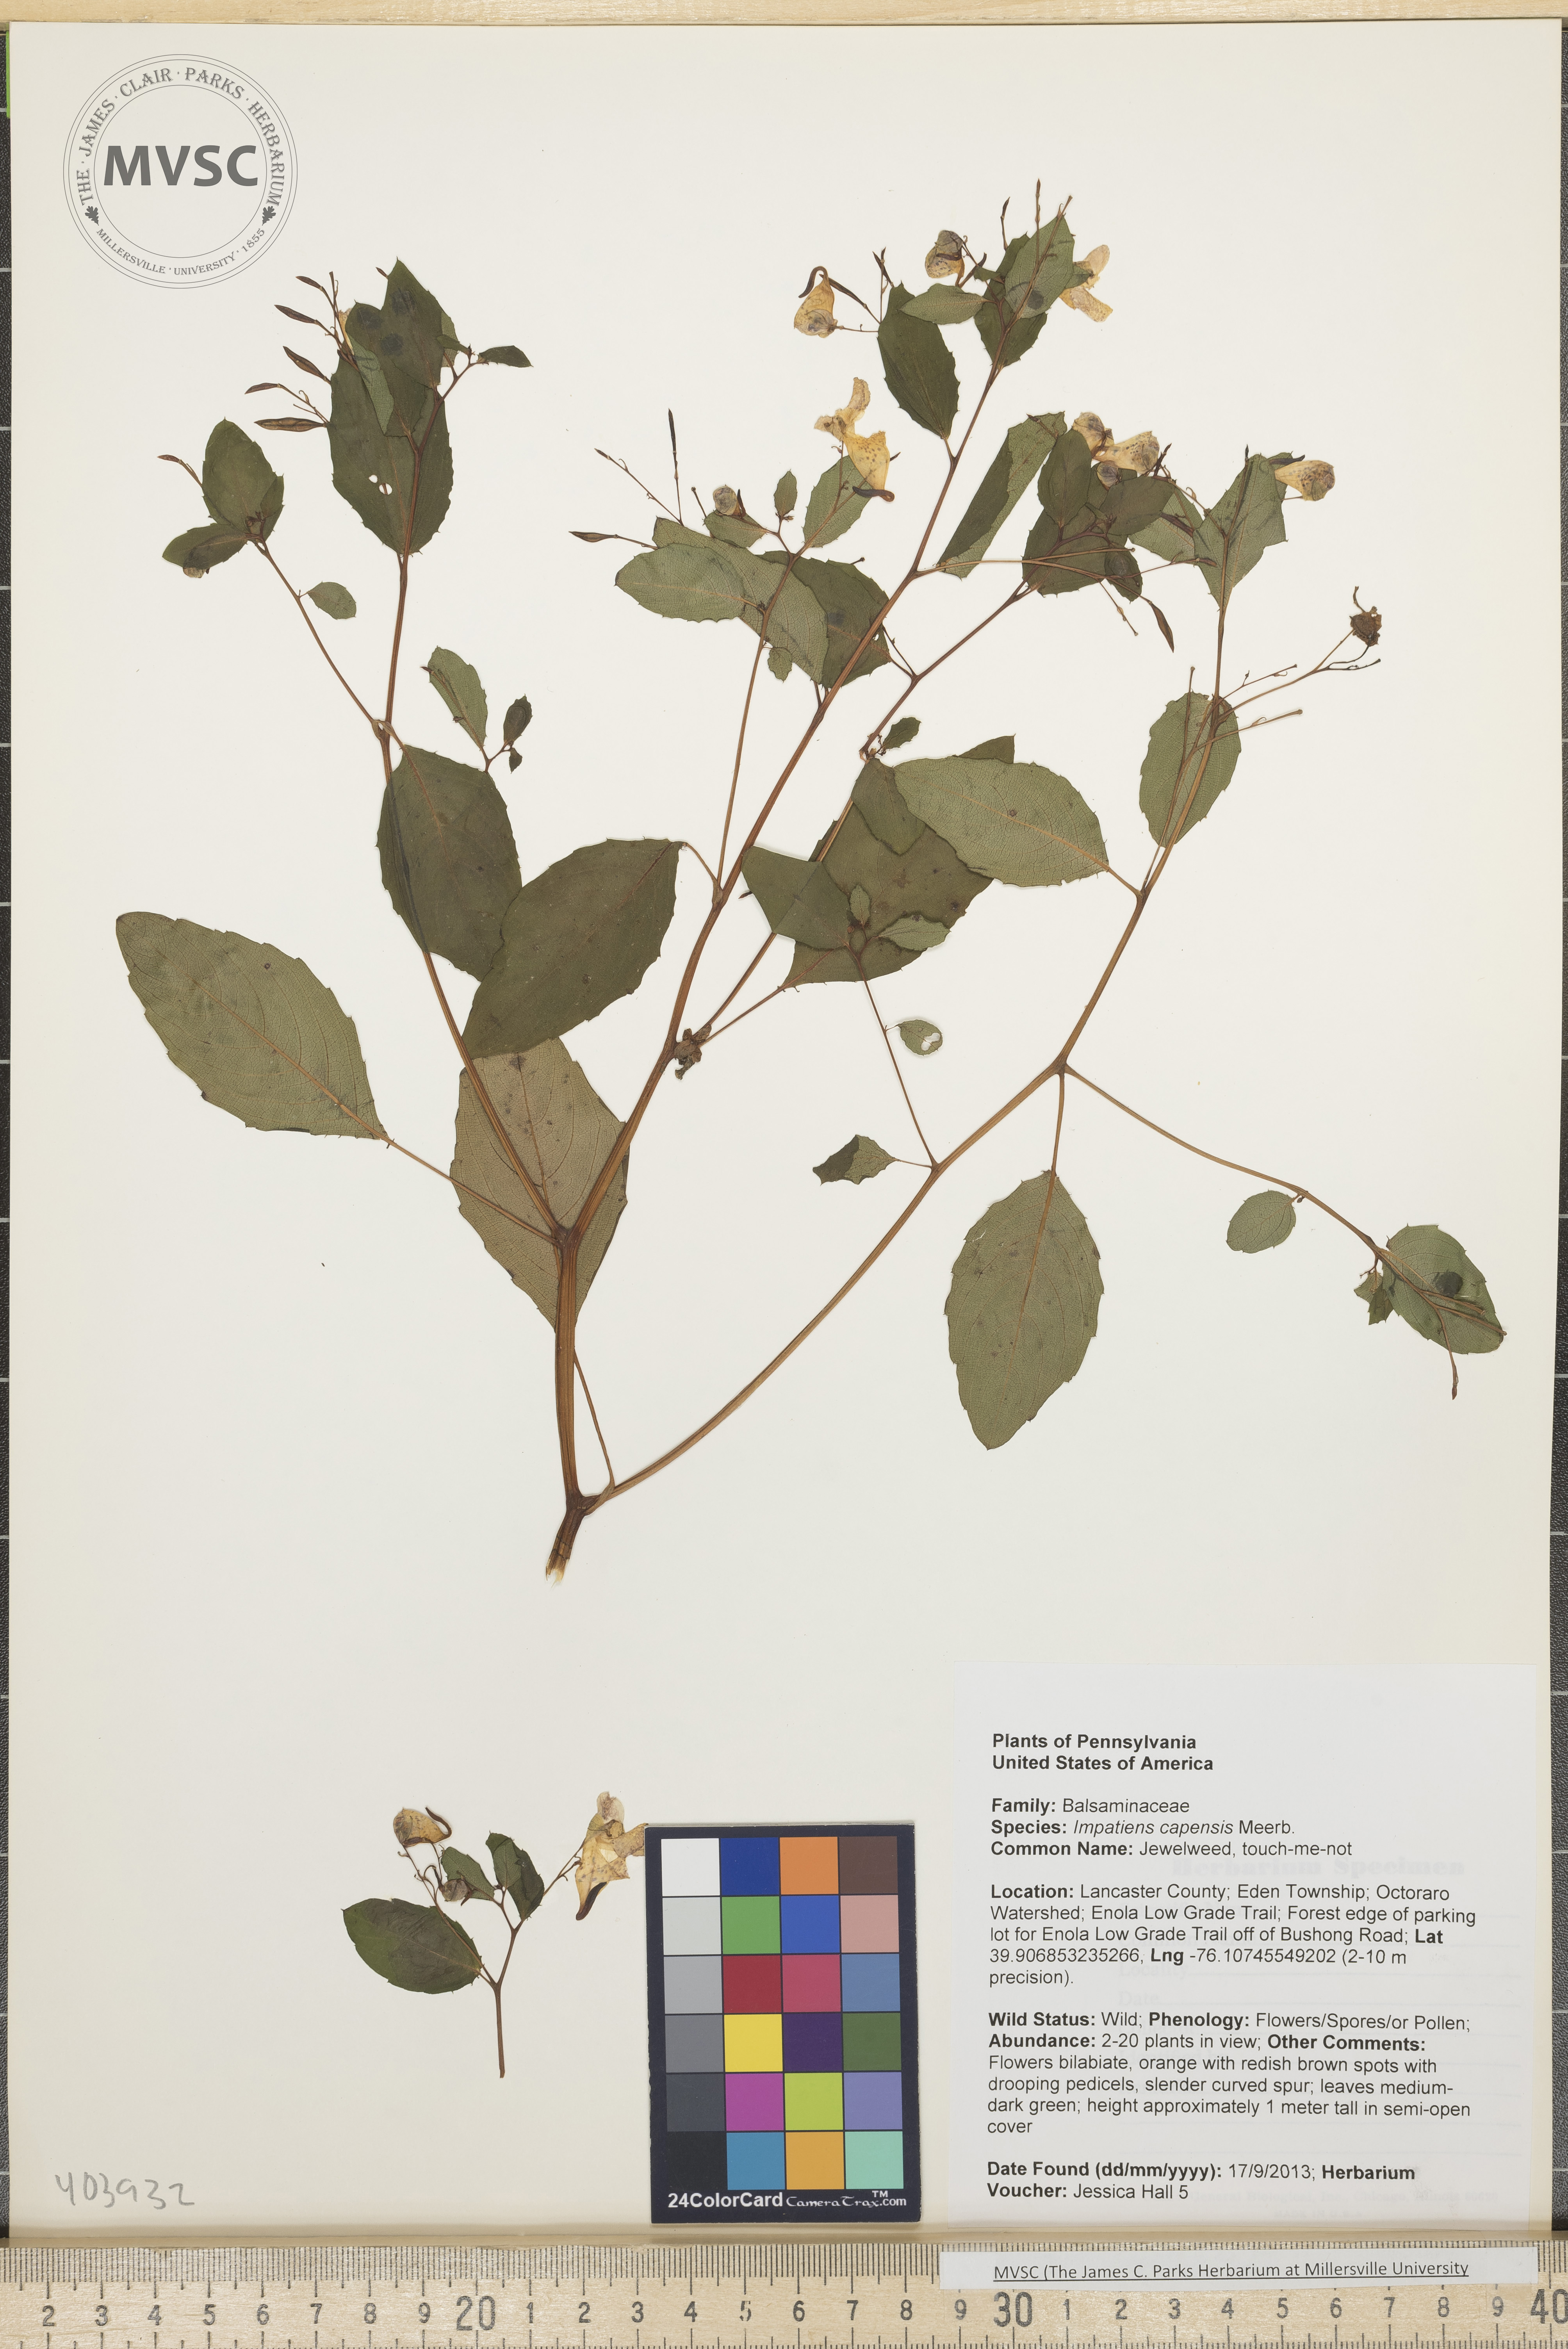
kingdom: Plantae
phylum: Tracheophyta
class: Magnoliopsida
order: Ericales
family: Balsaminaceae
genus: Impatiens
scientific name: Impatiens capensis
